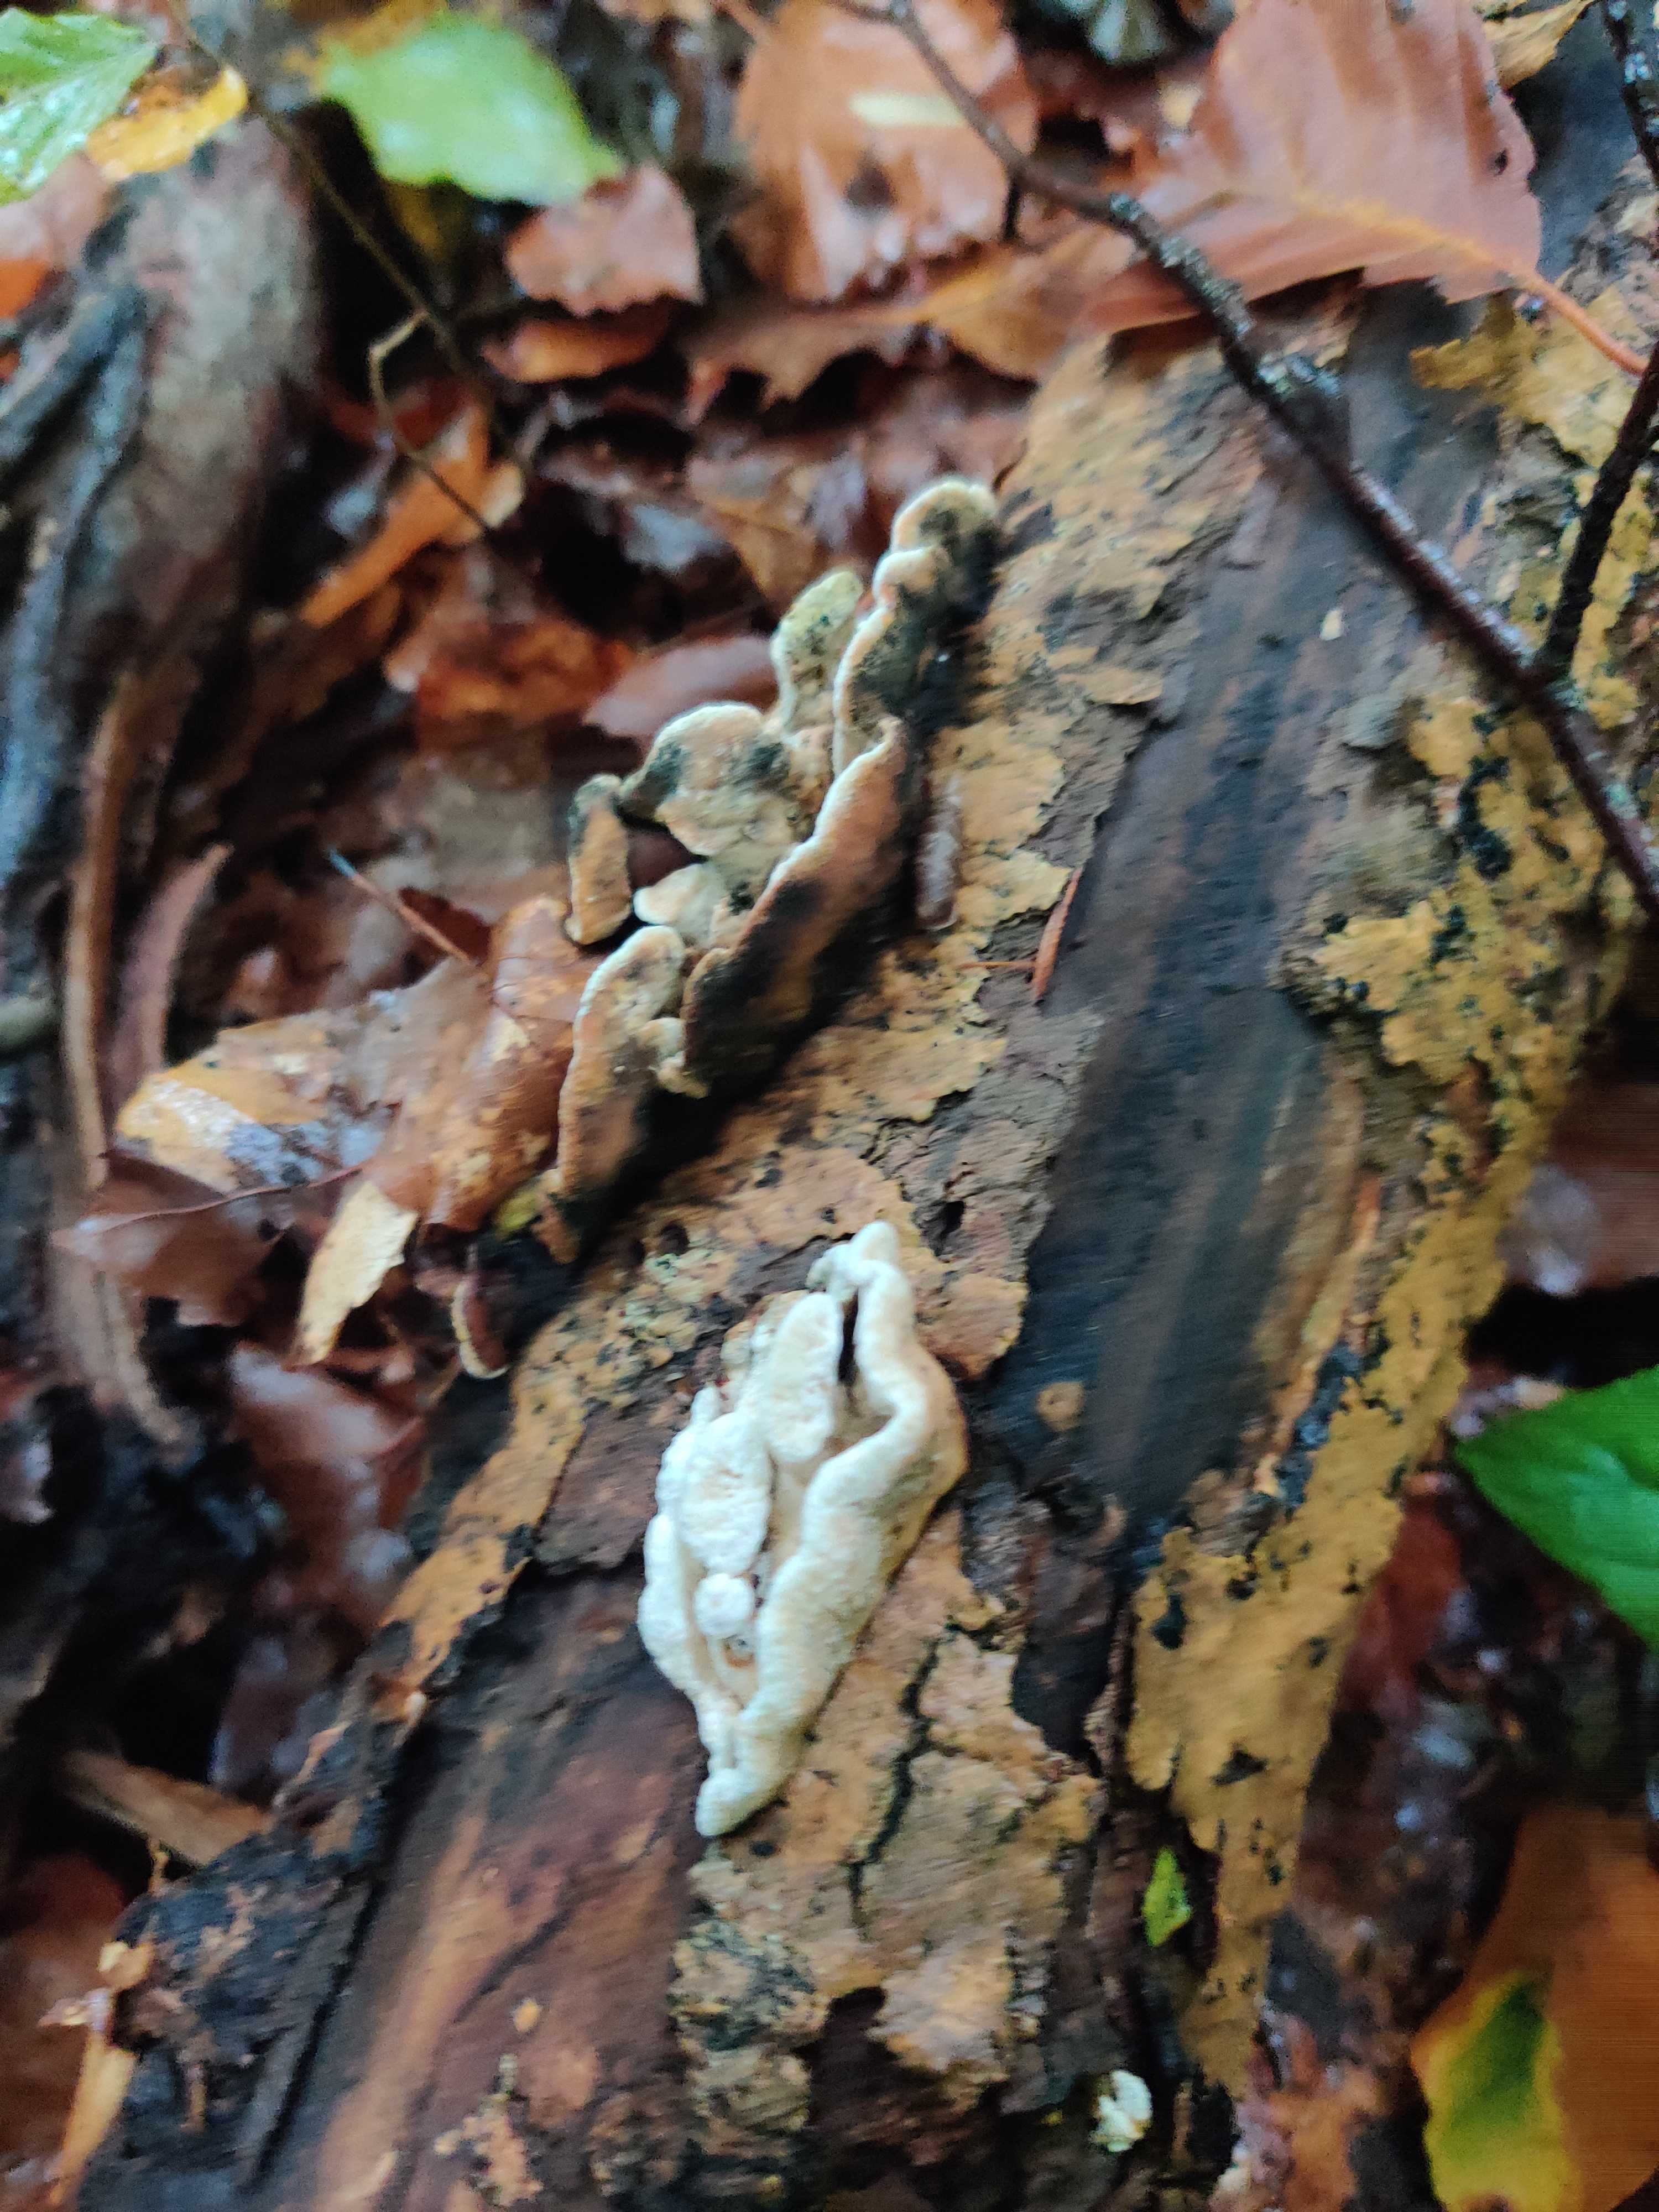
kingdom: Fungi
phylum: Basidiomycota
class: Agaricomycetes
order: Polyporales
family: Incrustoporiaceae
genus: Skeletocutis
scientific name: Skeletocutis nemoralis
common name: stor krystalporesvamp
